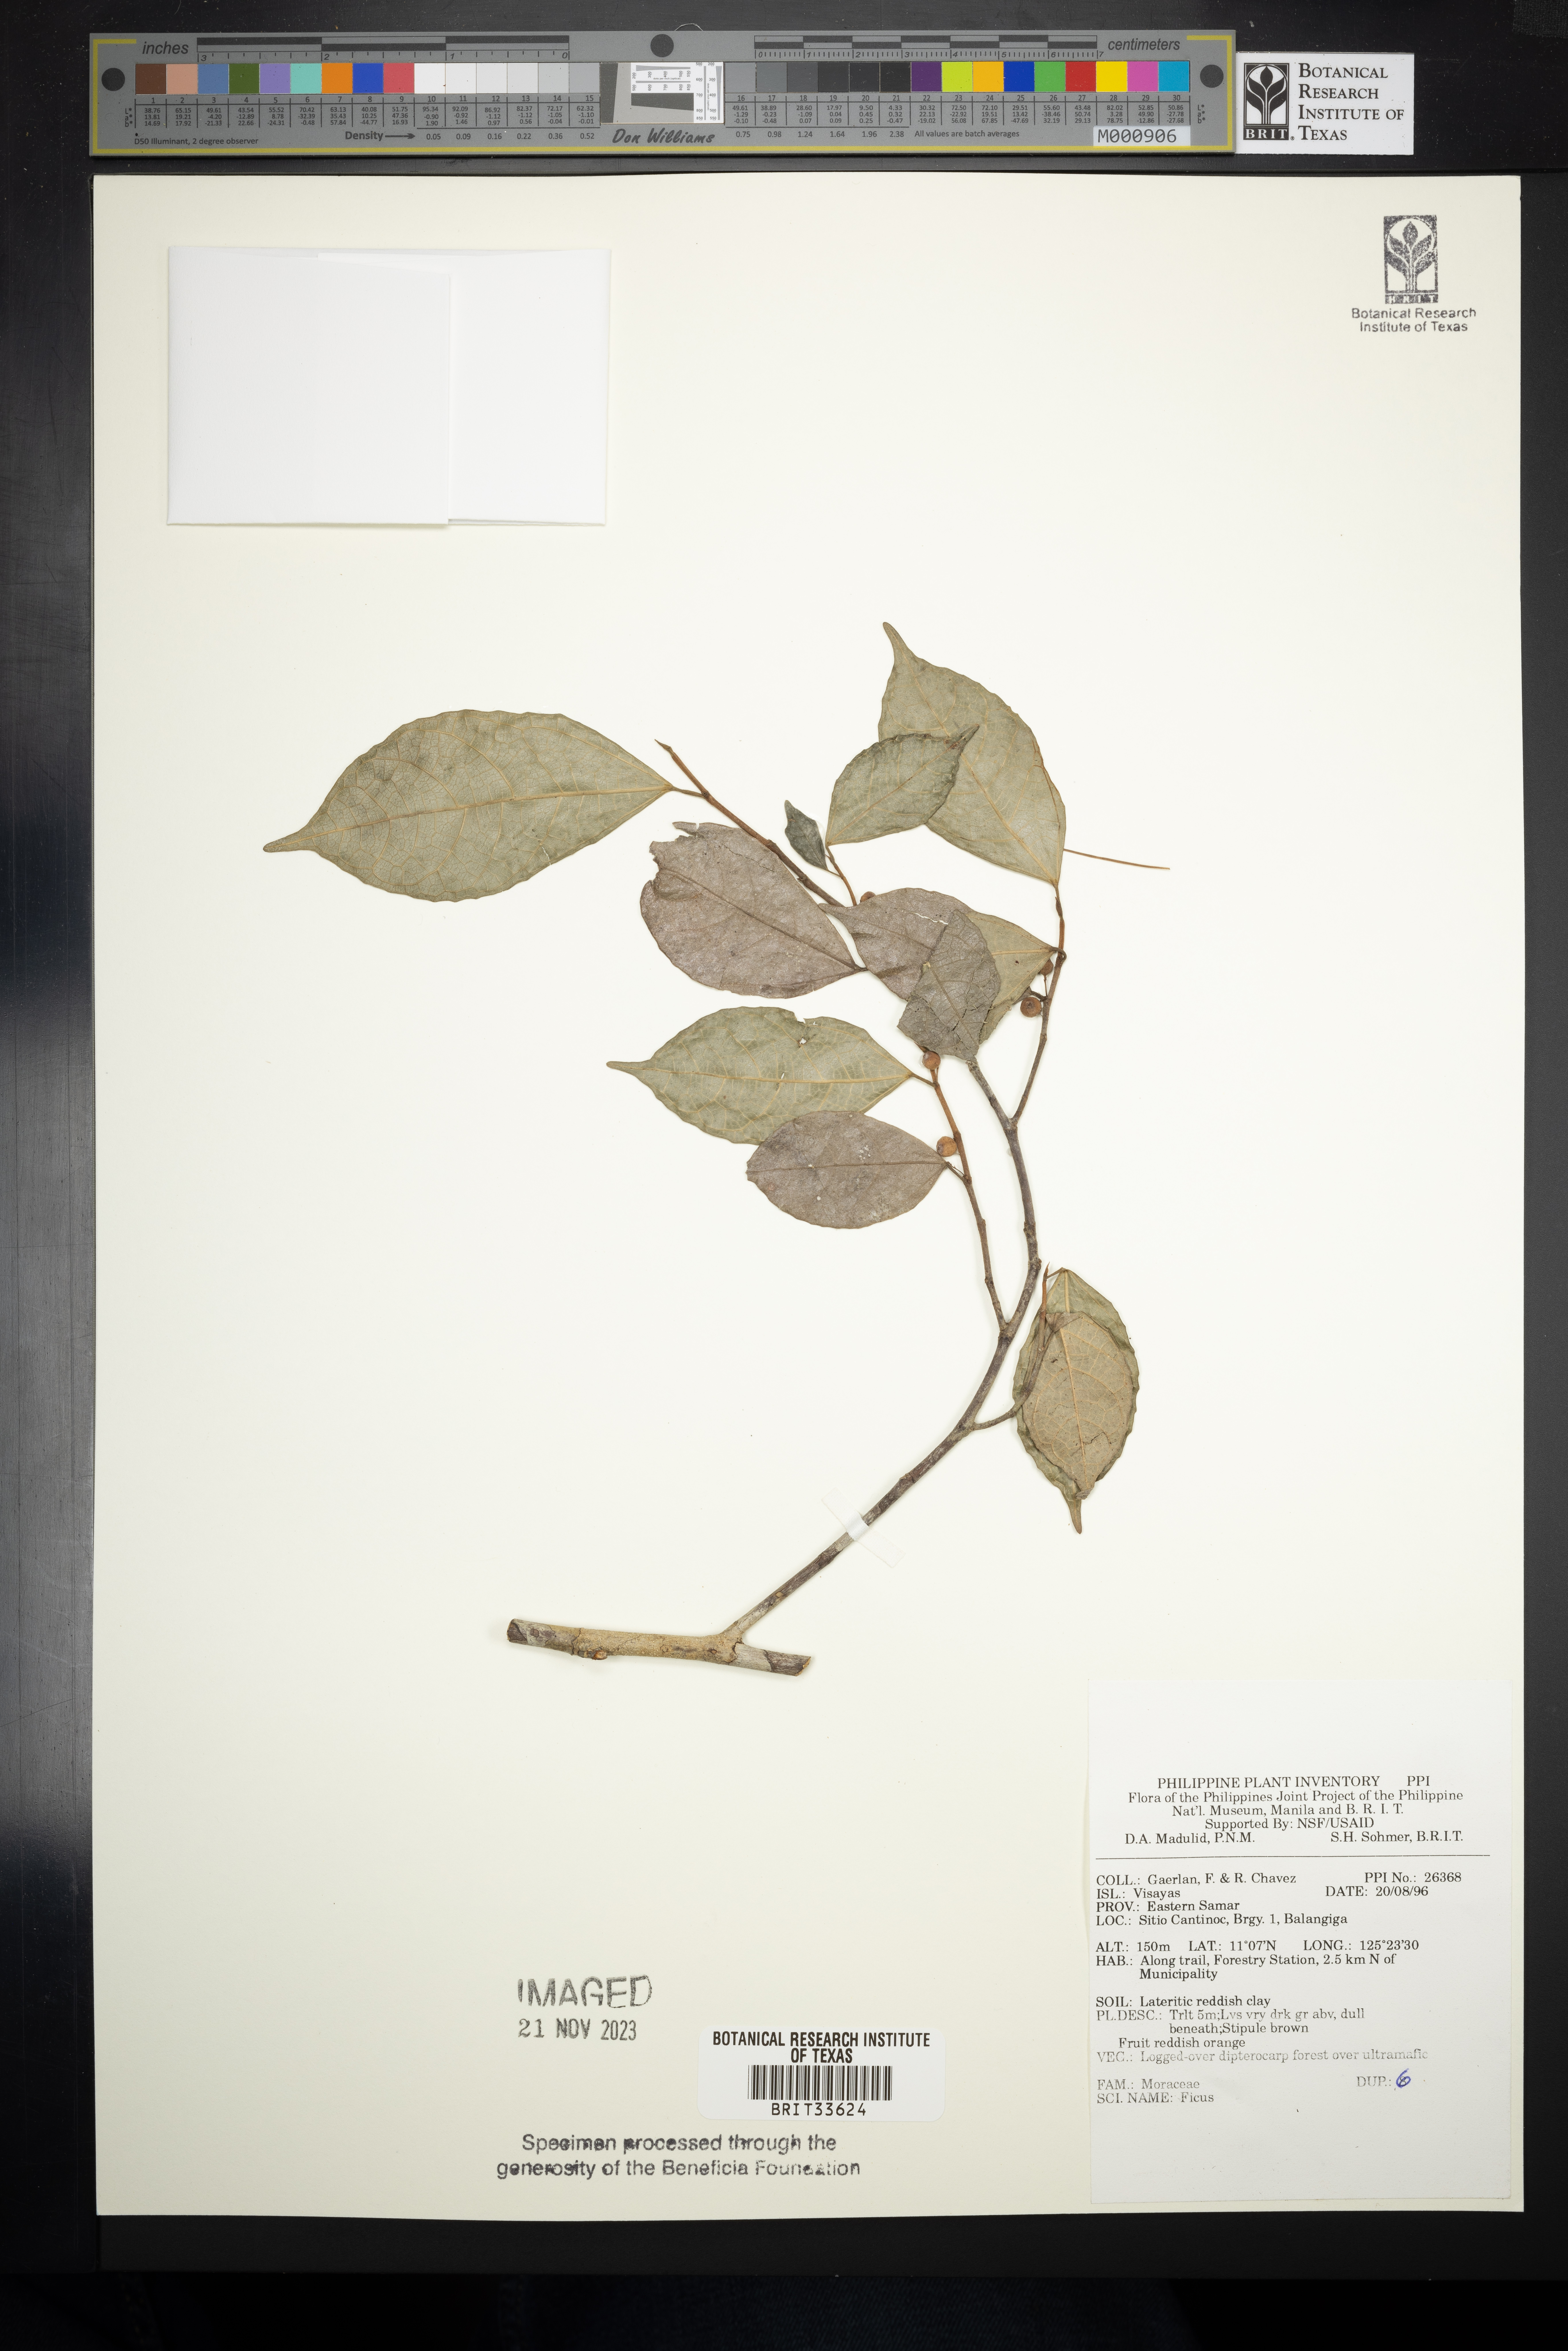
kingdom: Plantae
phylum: Tracheophyta
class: Magnoliopsida
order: Rosales
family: Moraceae
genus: Ficus
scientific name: Ficus
